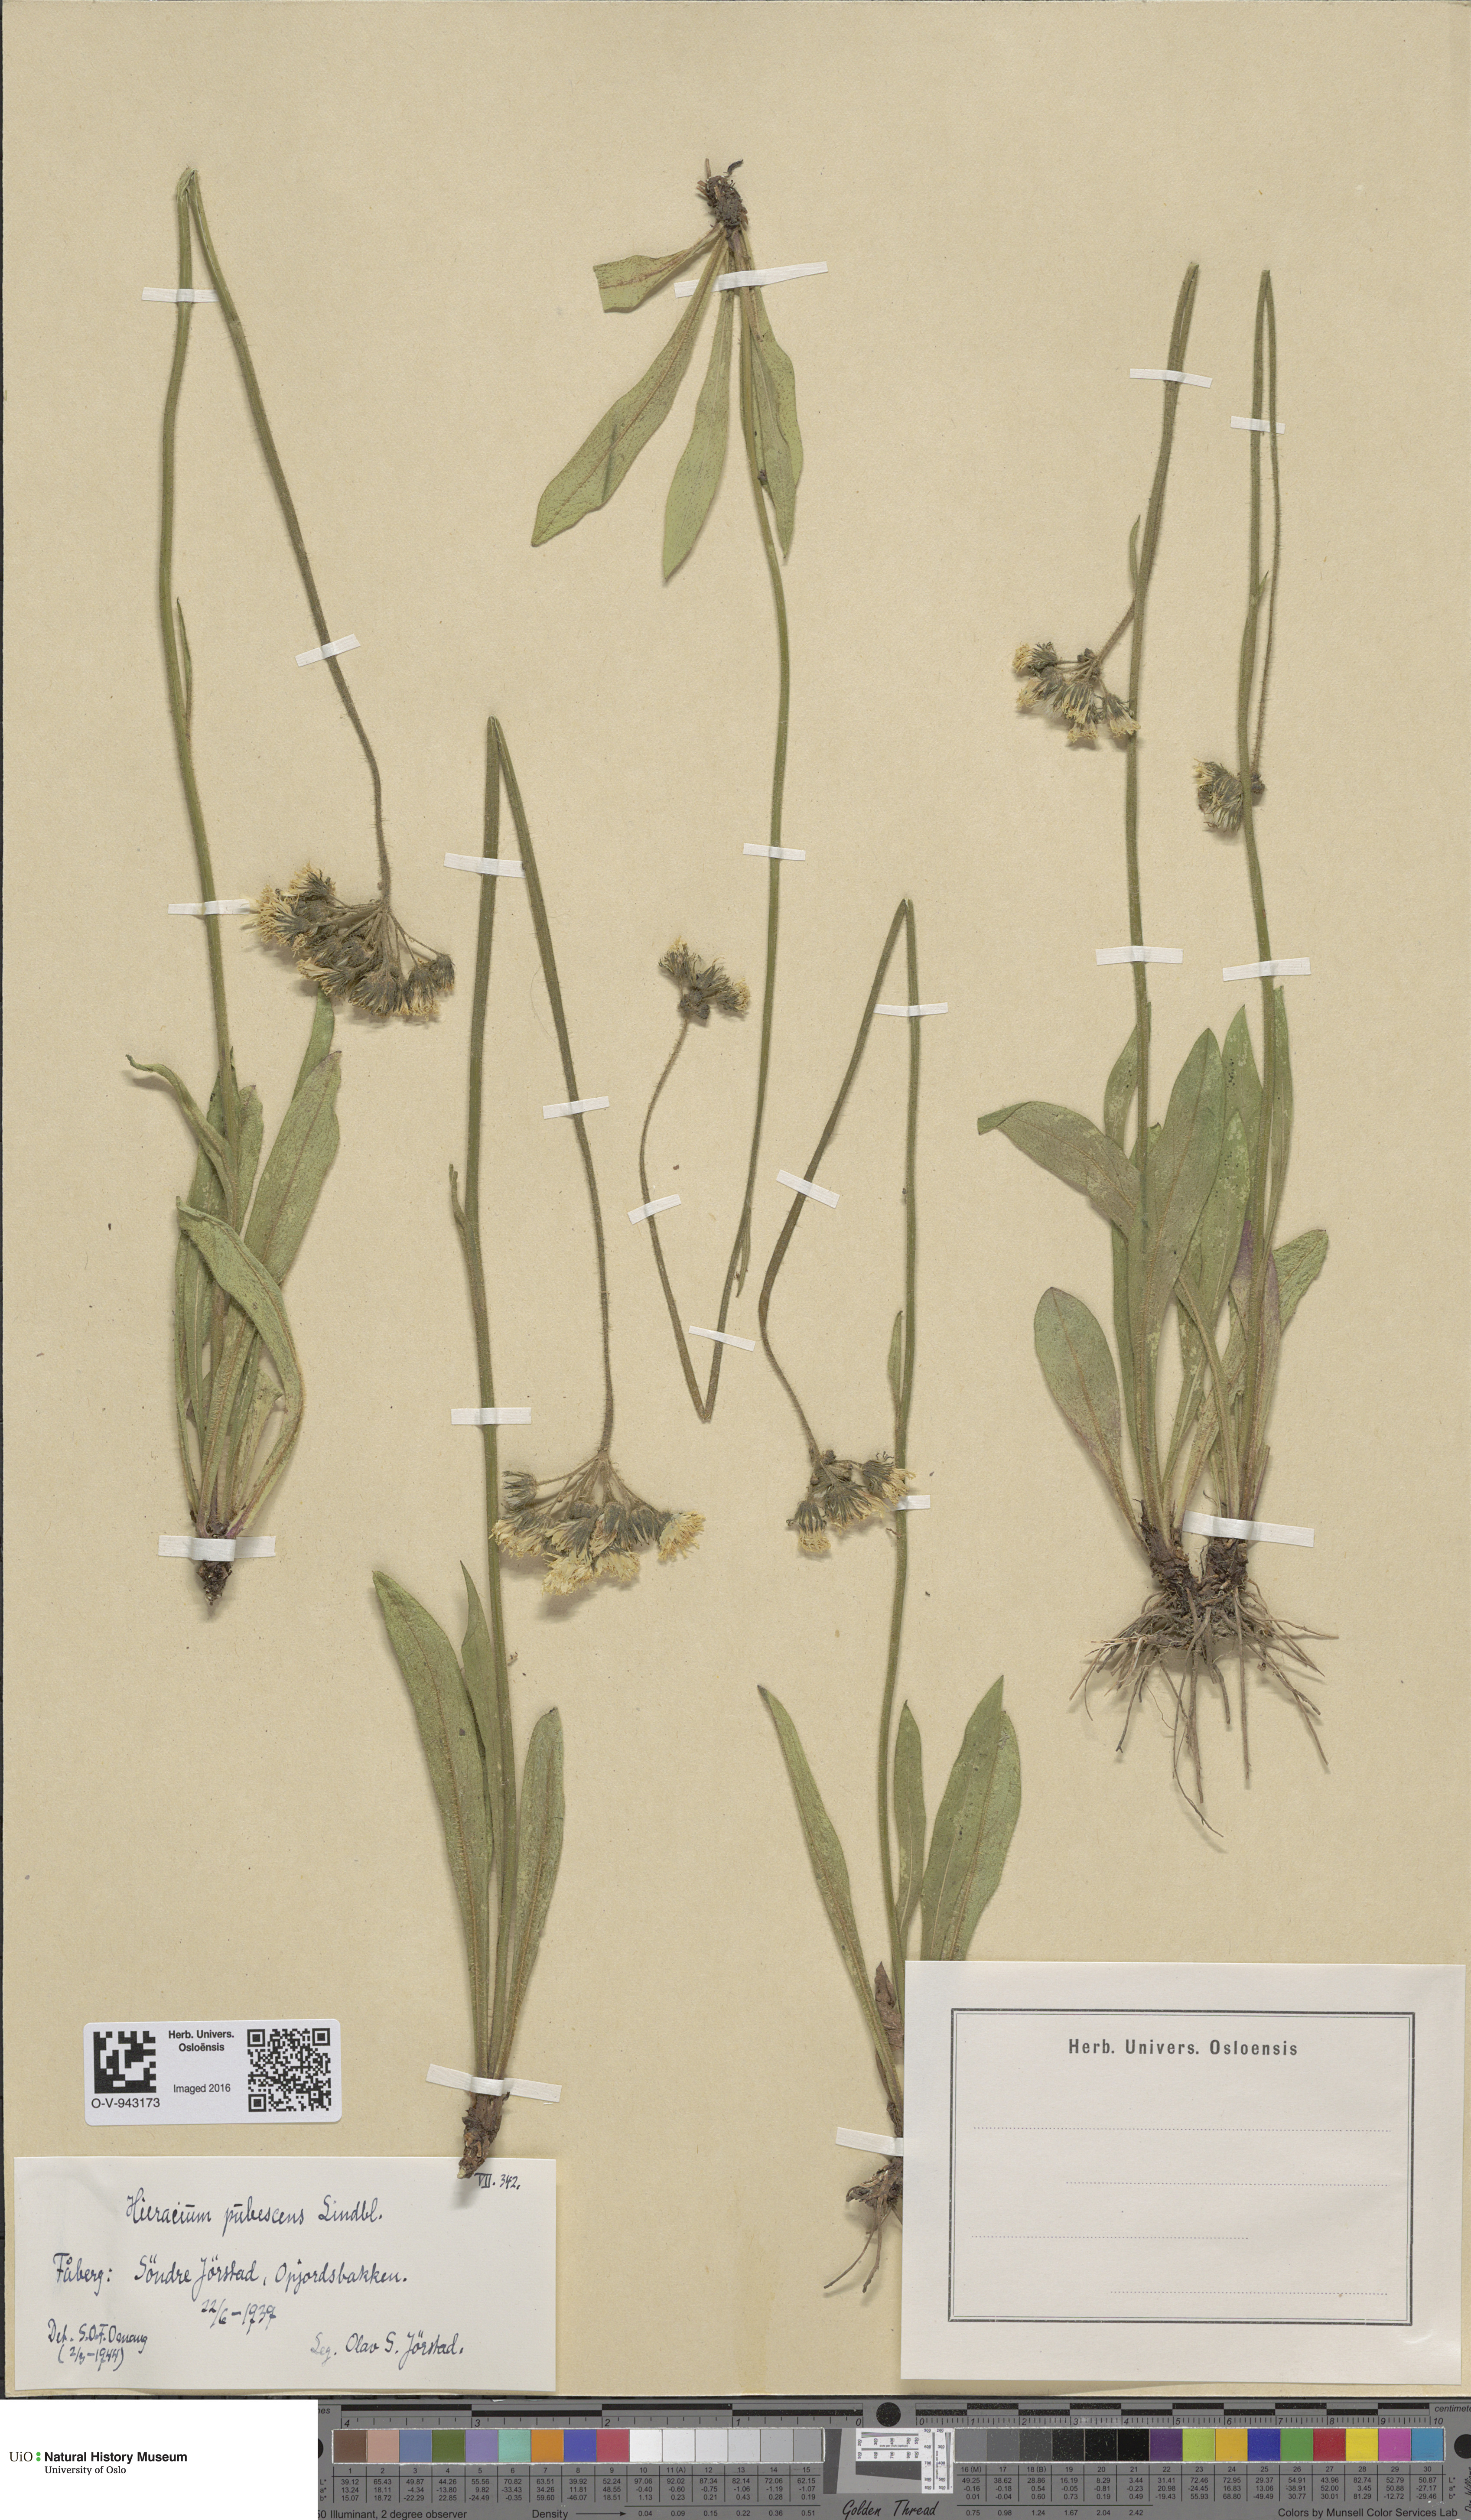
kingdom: Plantae
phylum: Tracheophyta
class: Magnoliopsida
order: Asterales
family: Asteraceae
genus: Pilosella
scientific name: Pilosella cymosa
